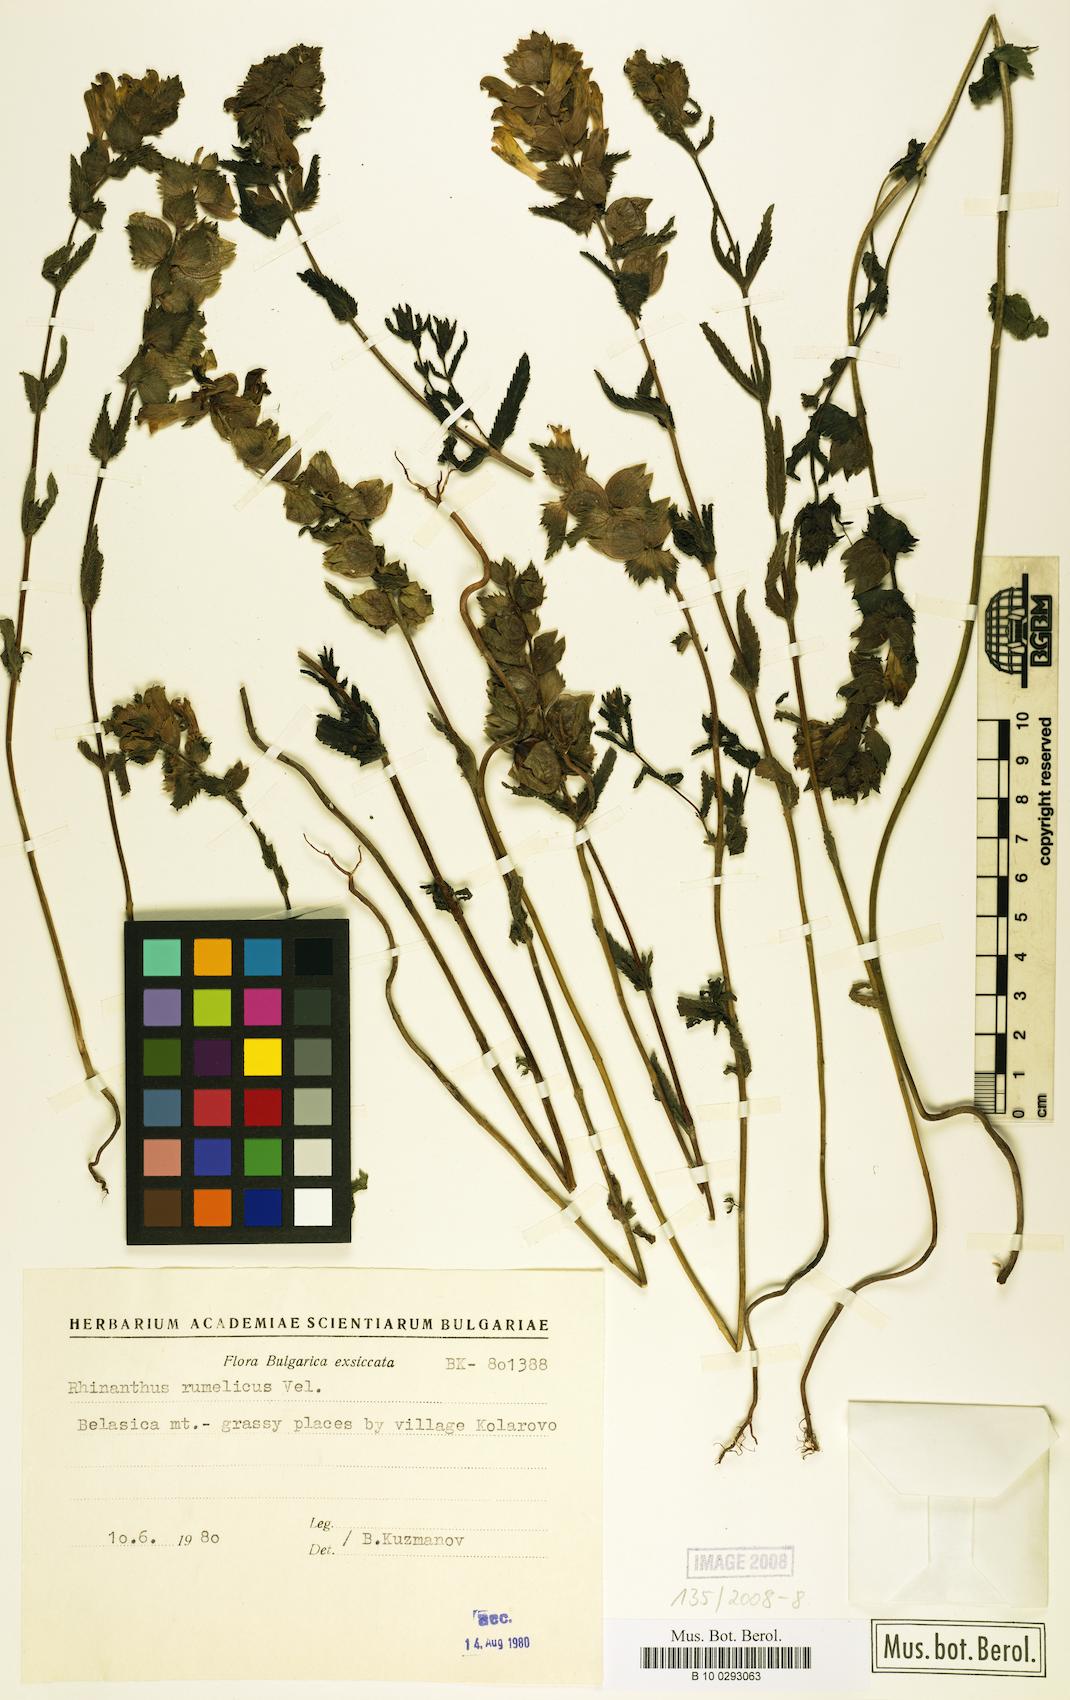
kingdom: Plantae
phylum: Tracheophyta
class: Magnoliopsida
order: Lamiales
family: Orobanchaceae
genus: Rhinanthus
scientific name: Rhinanthus rumelicus
